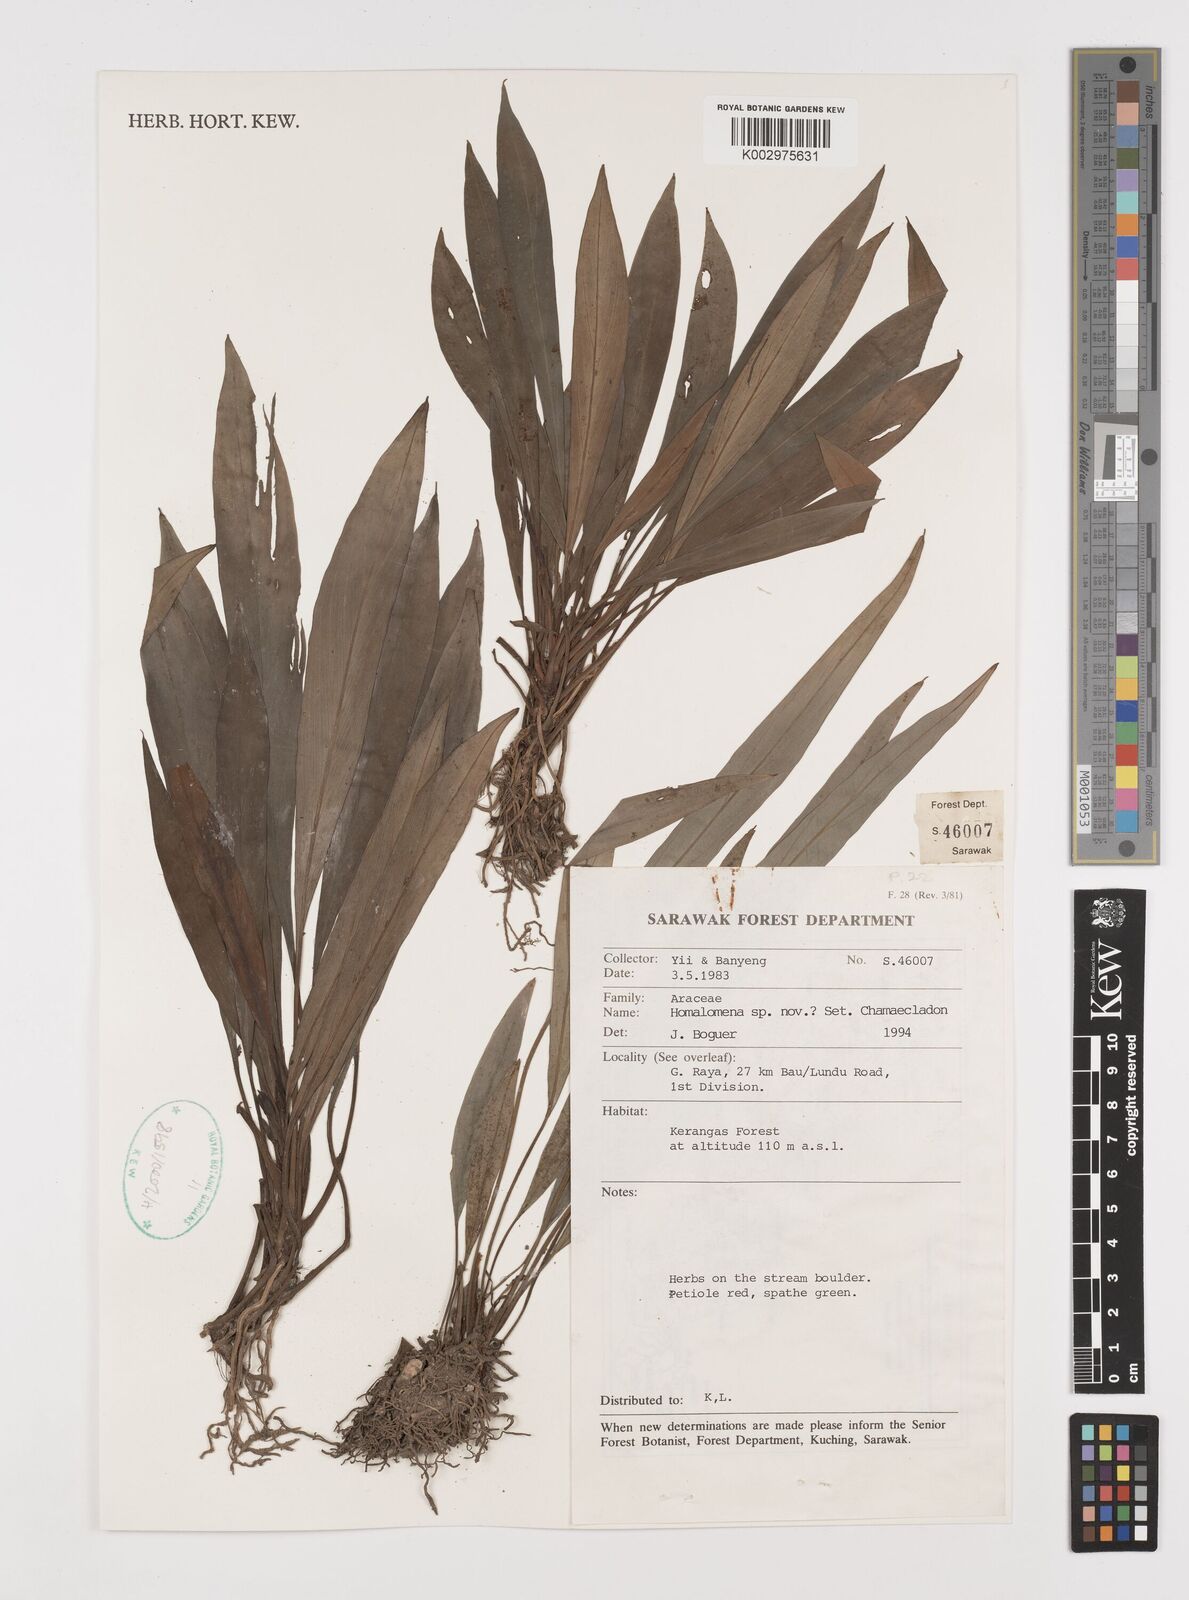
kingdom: Plantae
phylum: Tracheophyta
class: Liliopsida
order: Alismatales
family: Araceae
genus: Homalomena
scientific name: Homalomena
